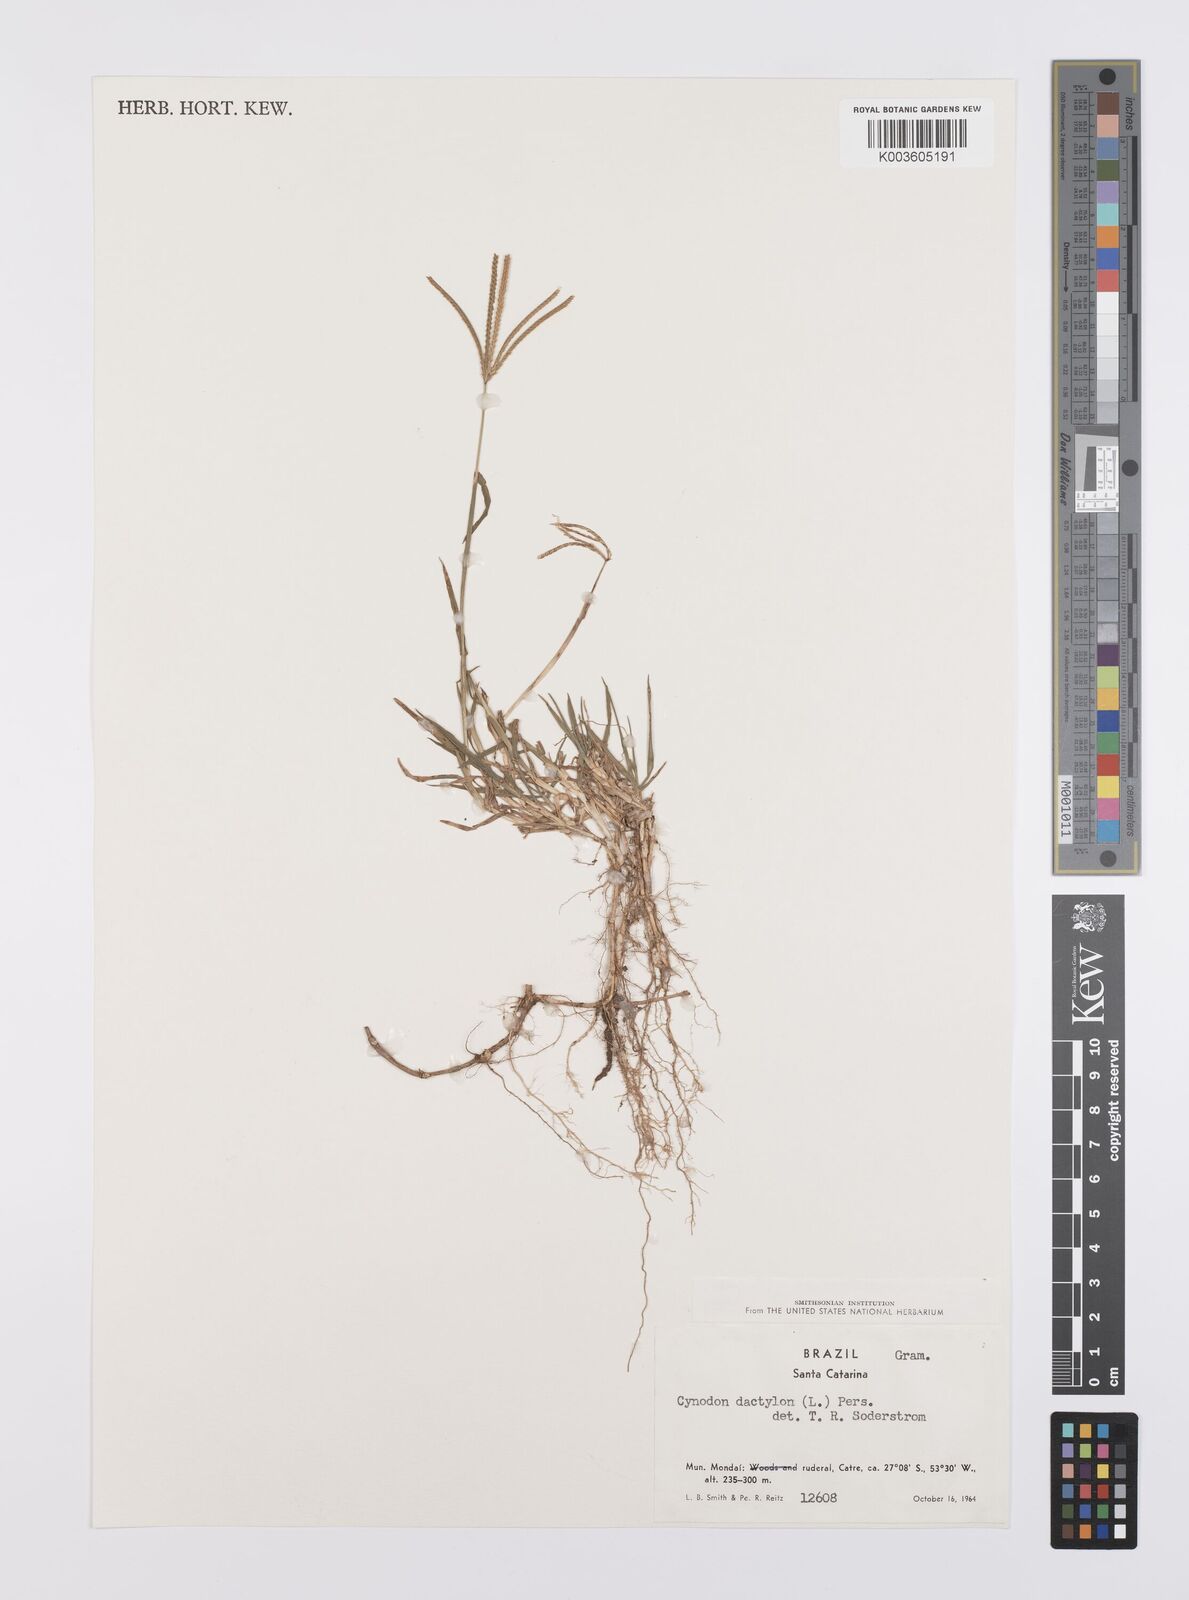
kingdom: Plantae
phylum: Tracheophyta
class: Liliopsida
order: Poales
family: Poaceae
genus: Cynodon
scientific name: Cynodon dactylon
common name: Bermuda grass
